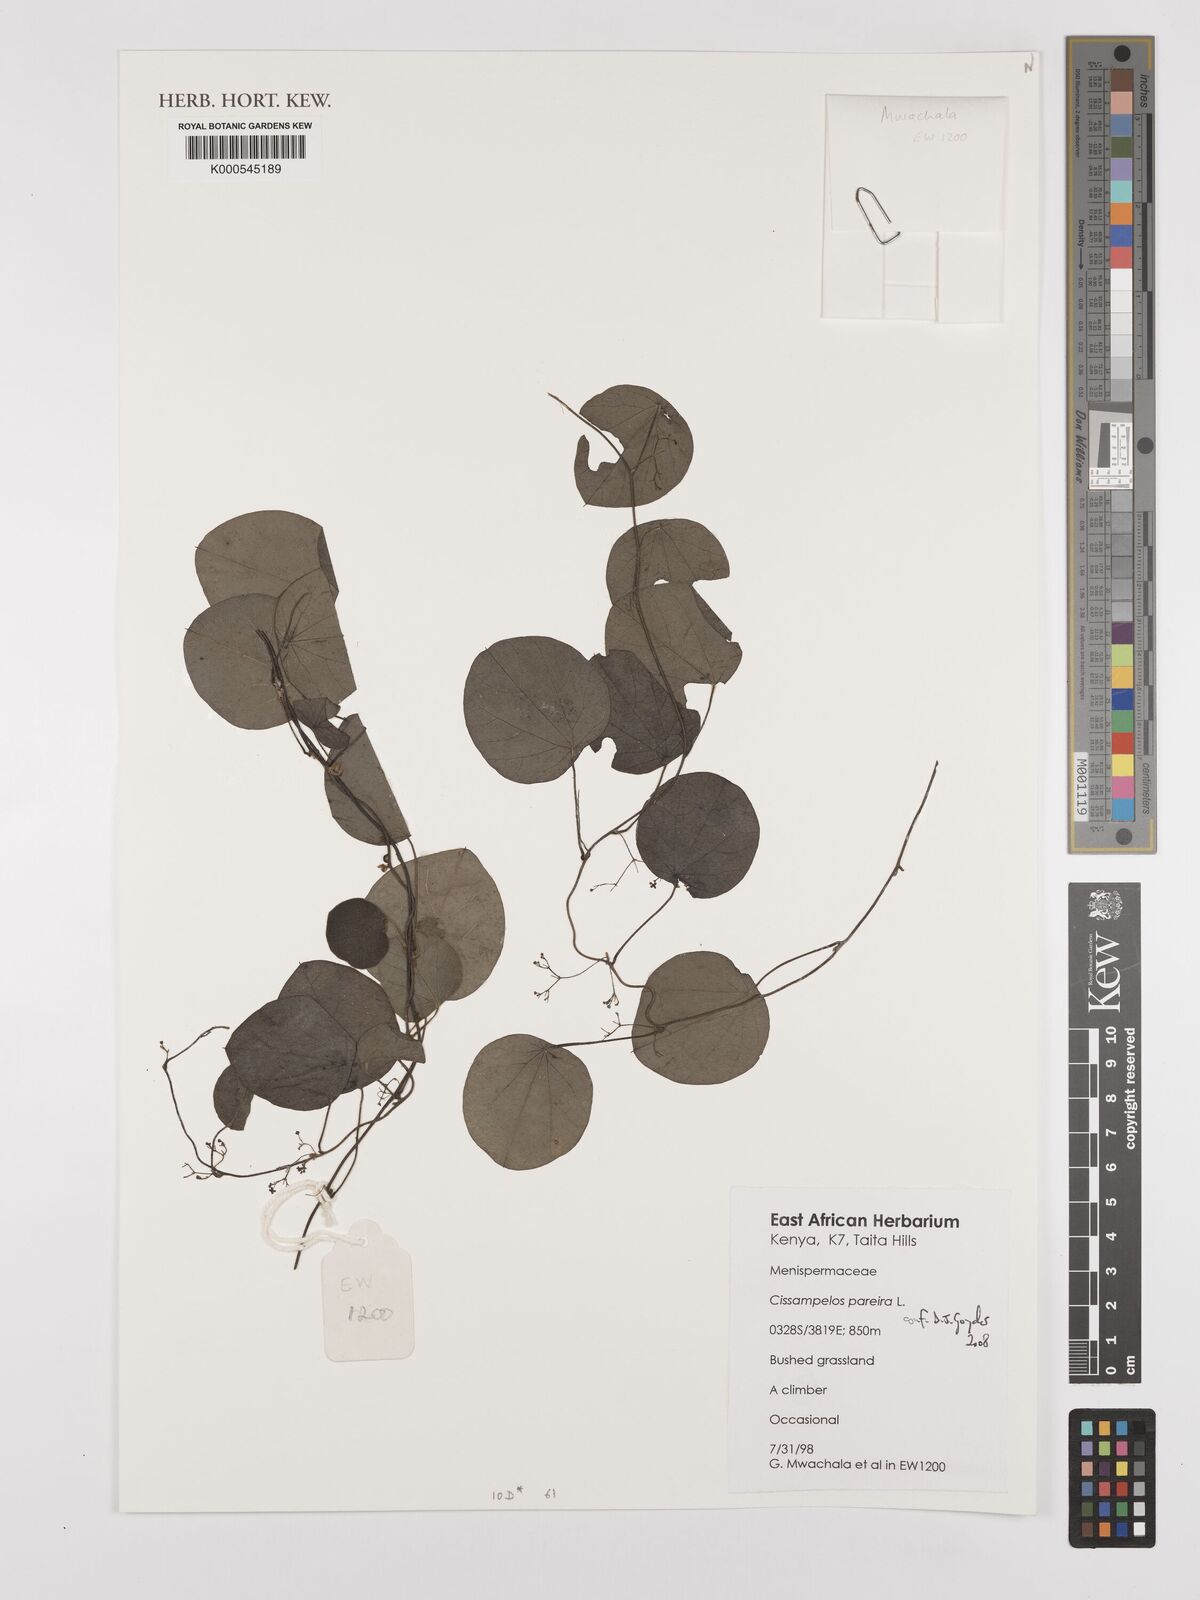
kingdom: Plantae
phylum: Tracheophyta
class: Magnoliopsida
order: Ranunculales
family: Menispermaceae
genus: Cissampelos
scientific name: Cissampelos pareira
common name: Velvetleaf
